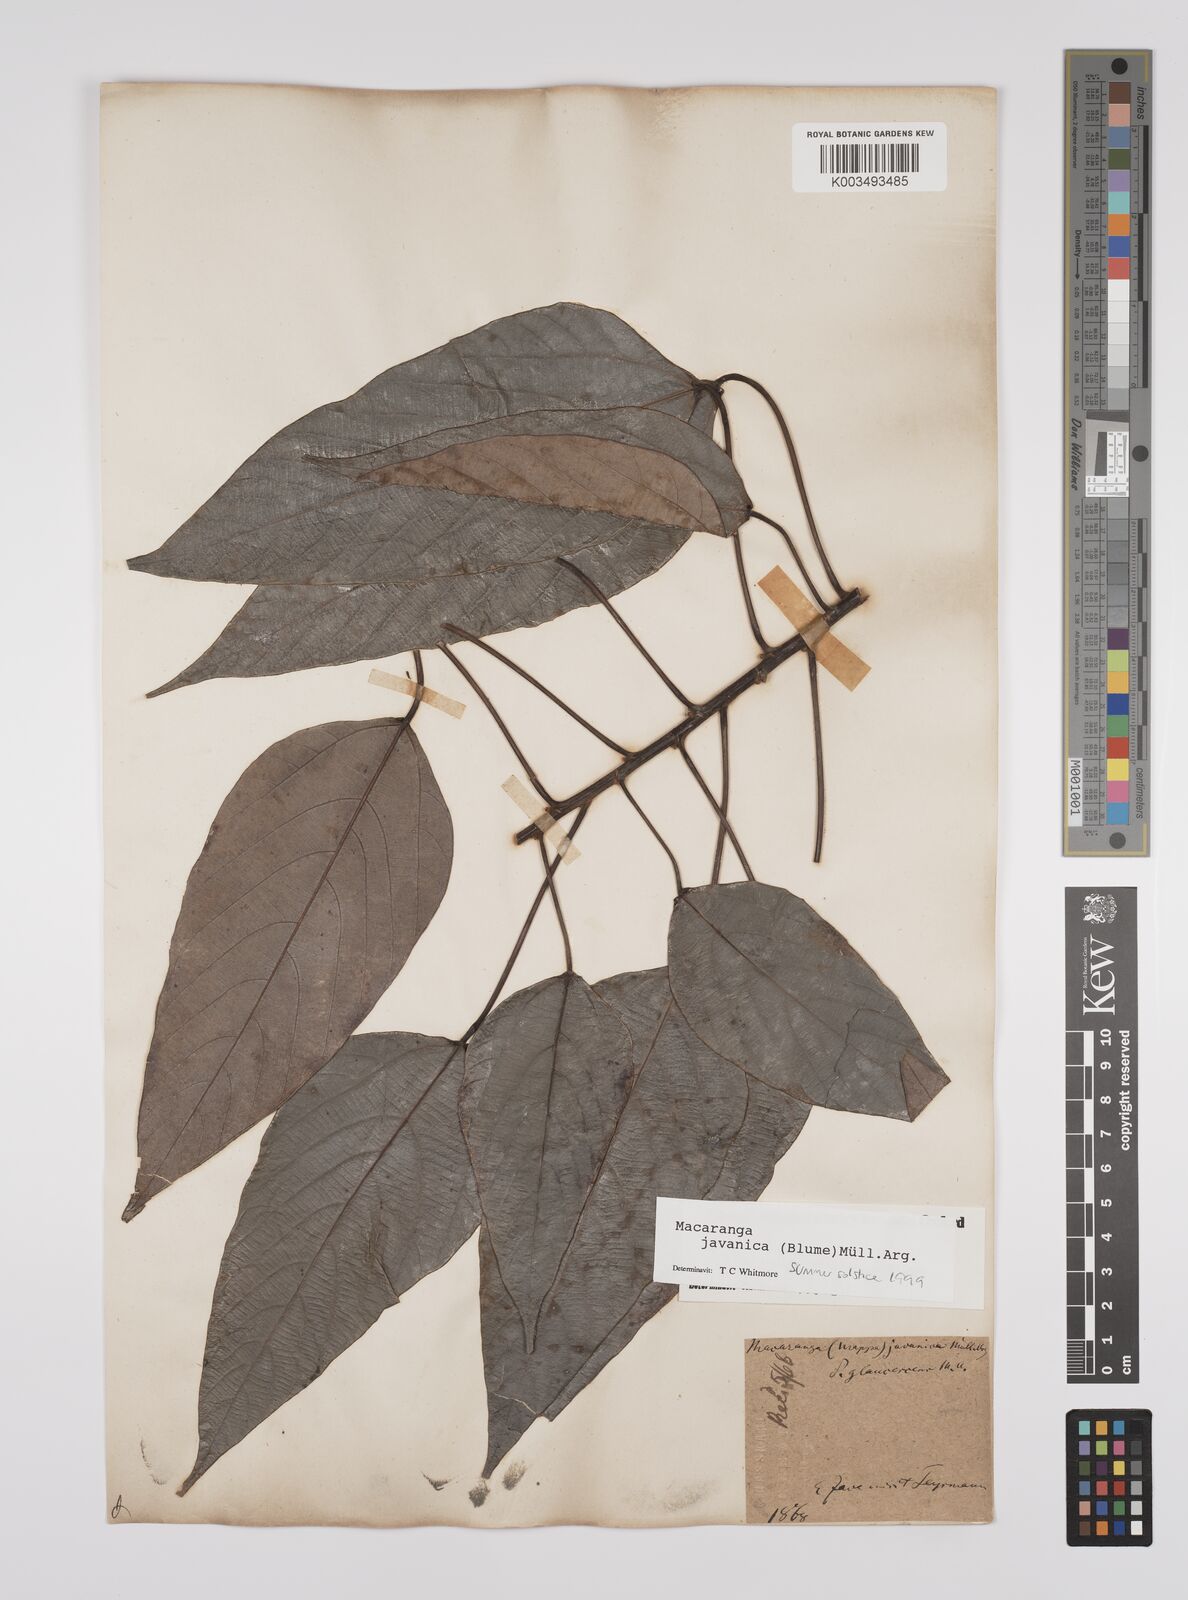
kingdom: Plantae
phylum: Tracheophyta
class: Magnoliopsida
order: Malpighiales
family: Euphorbiaceae
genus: Macaranga
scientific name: Macaranga javanica
